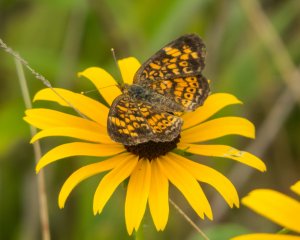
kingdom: Animalia
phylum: Arthropoda
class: Insecta
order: Lepidoptera
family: Nymphalidae
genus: Phyciodes
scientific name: Phyciodes tharos
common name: Northern Crescent
